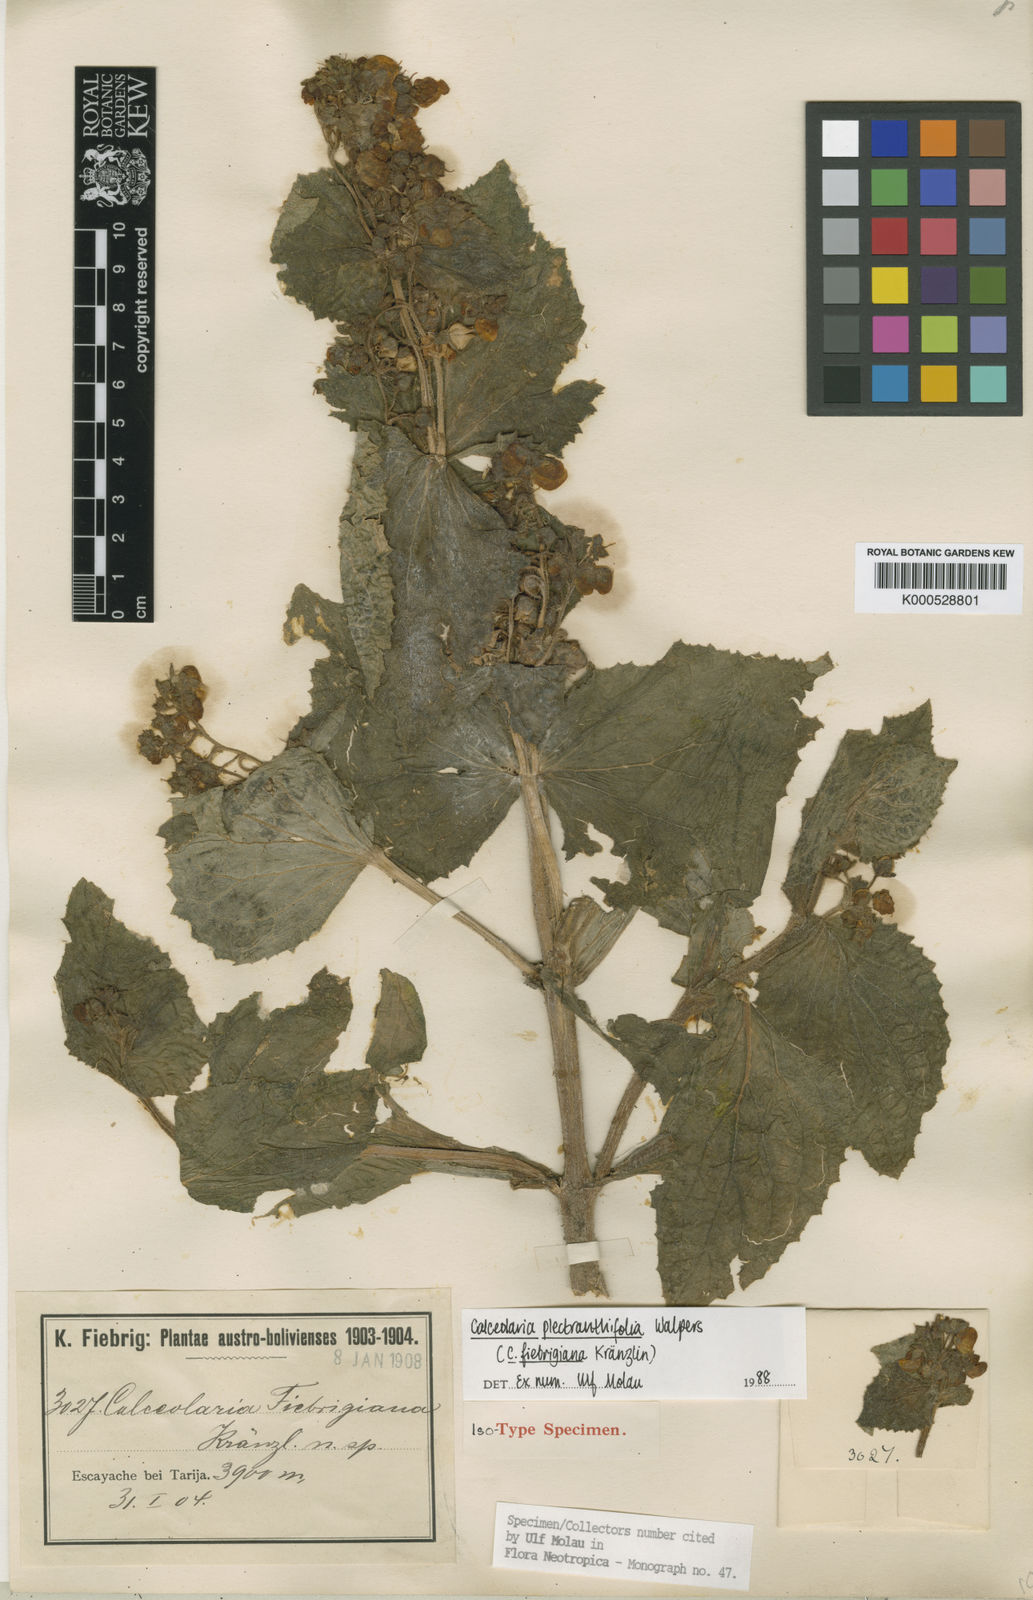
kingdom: Plantae
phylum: Tracheophyta
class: Magnoliopsida
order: Lamiales
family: Calceolariaceae
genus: Calceolaria
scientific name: Calceolaria plectranthifolia
